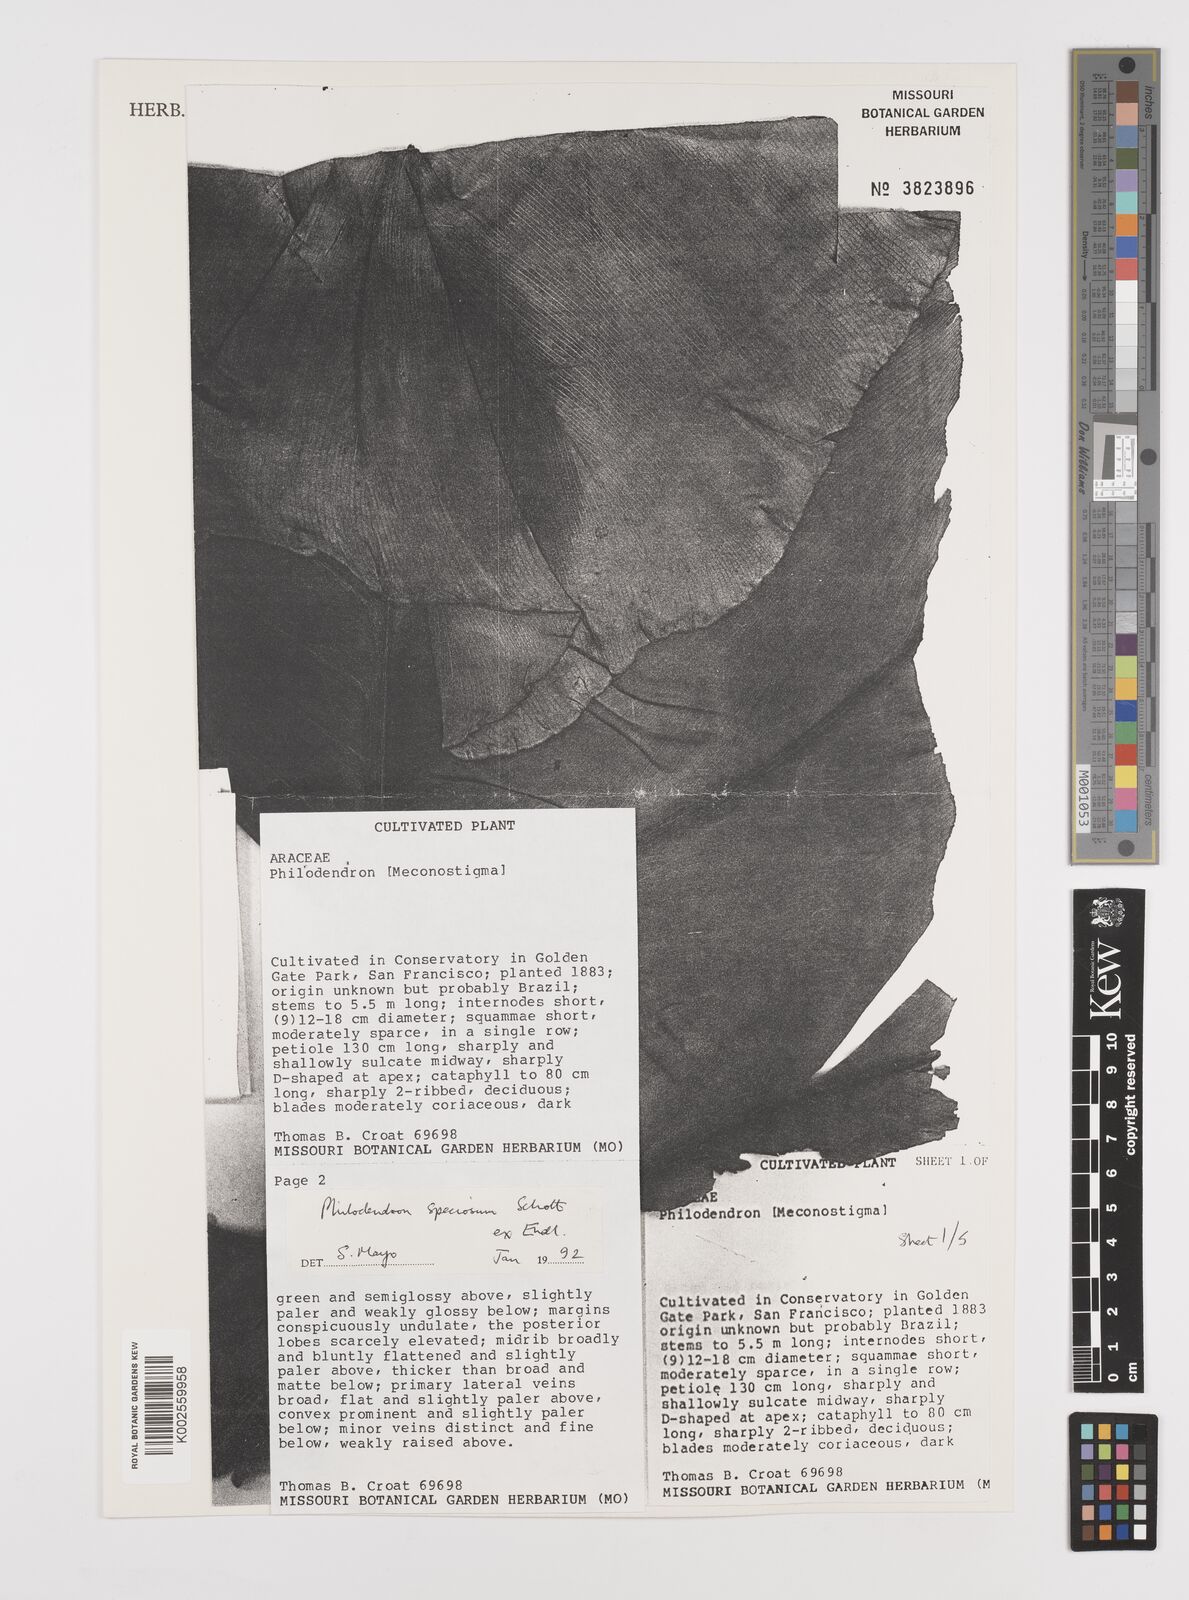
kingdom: Plantae
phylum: Tracheophyta
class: Liliopsida
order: Alismatales
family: Araceae
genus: Thaumatophyllum
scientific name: Thaumatophyllum speciosum
